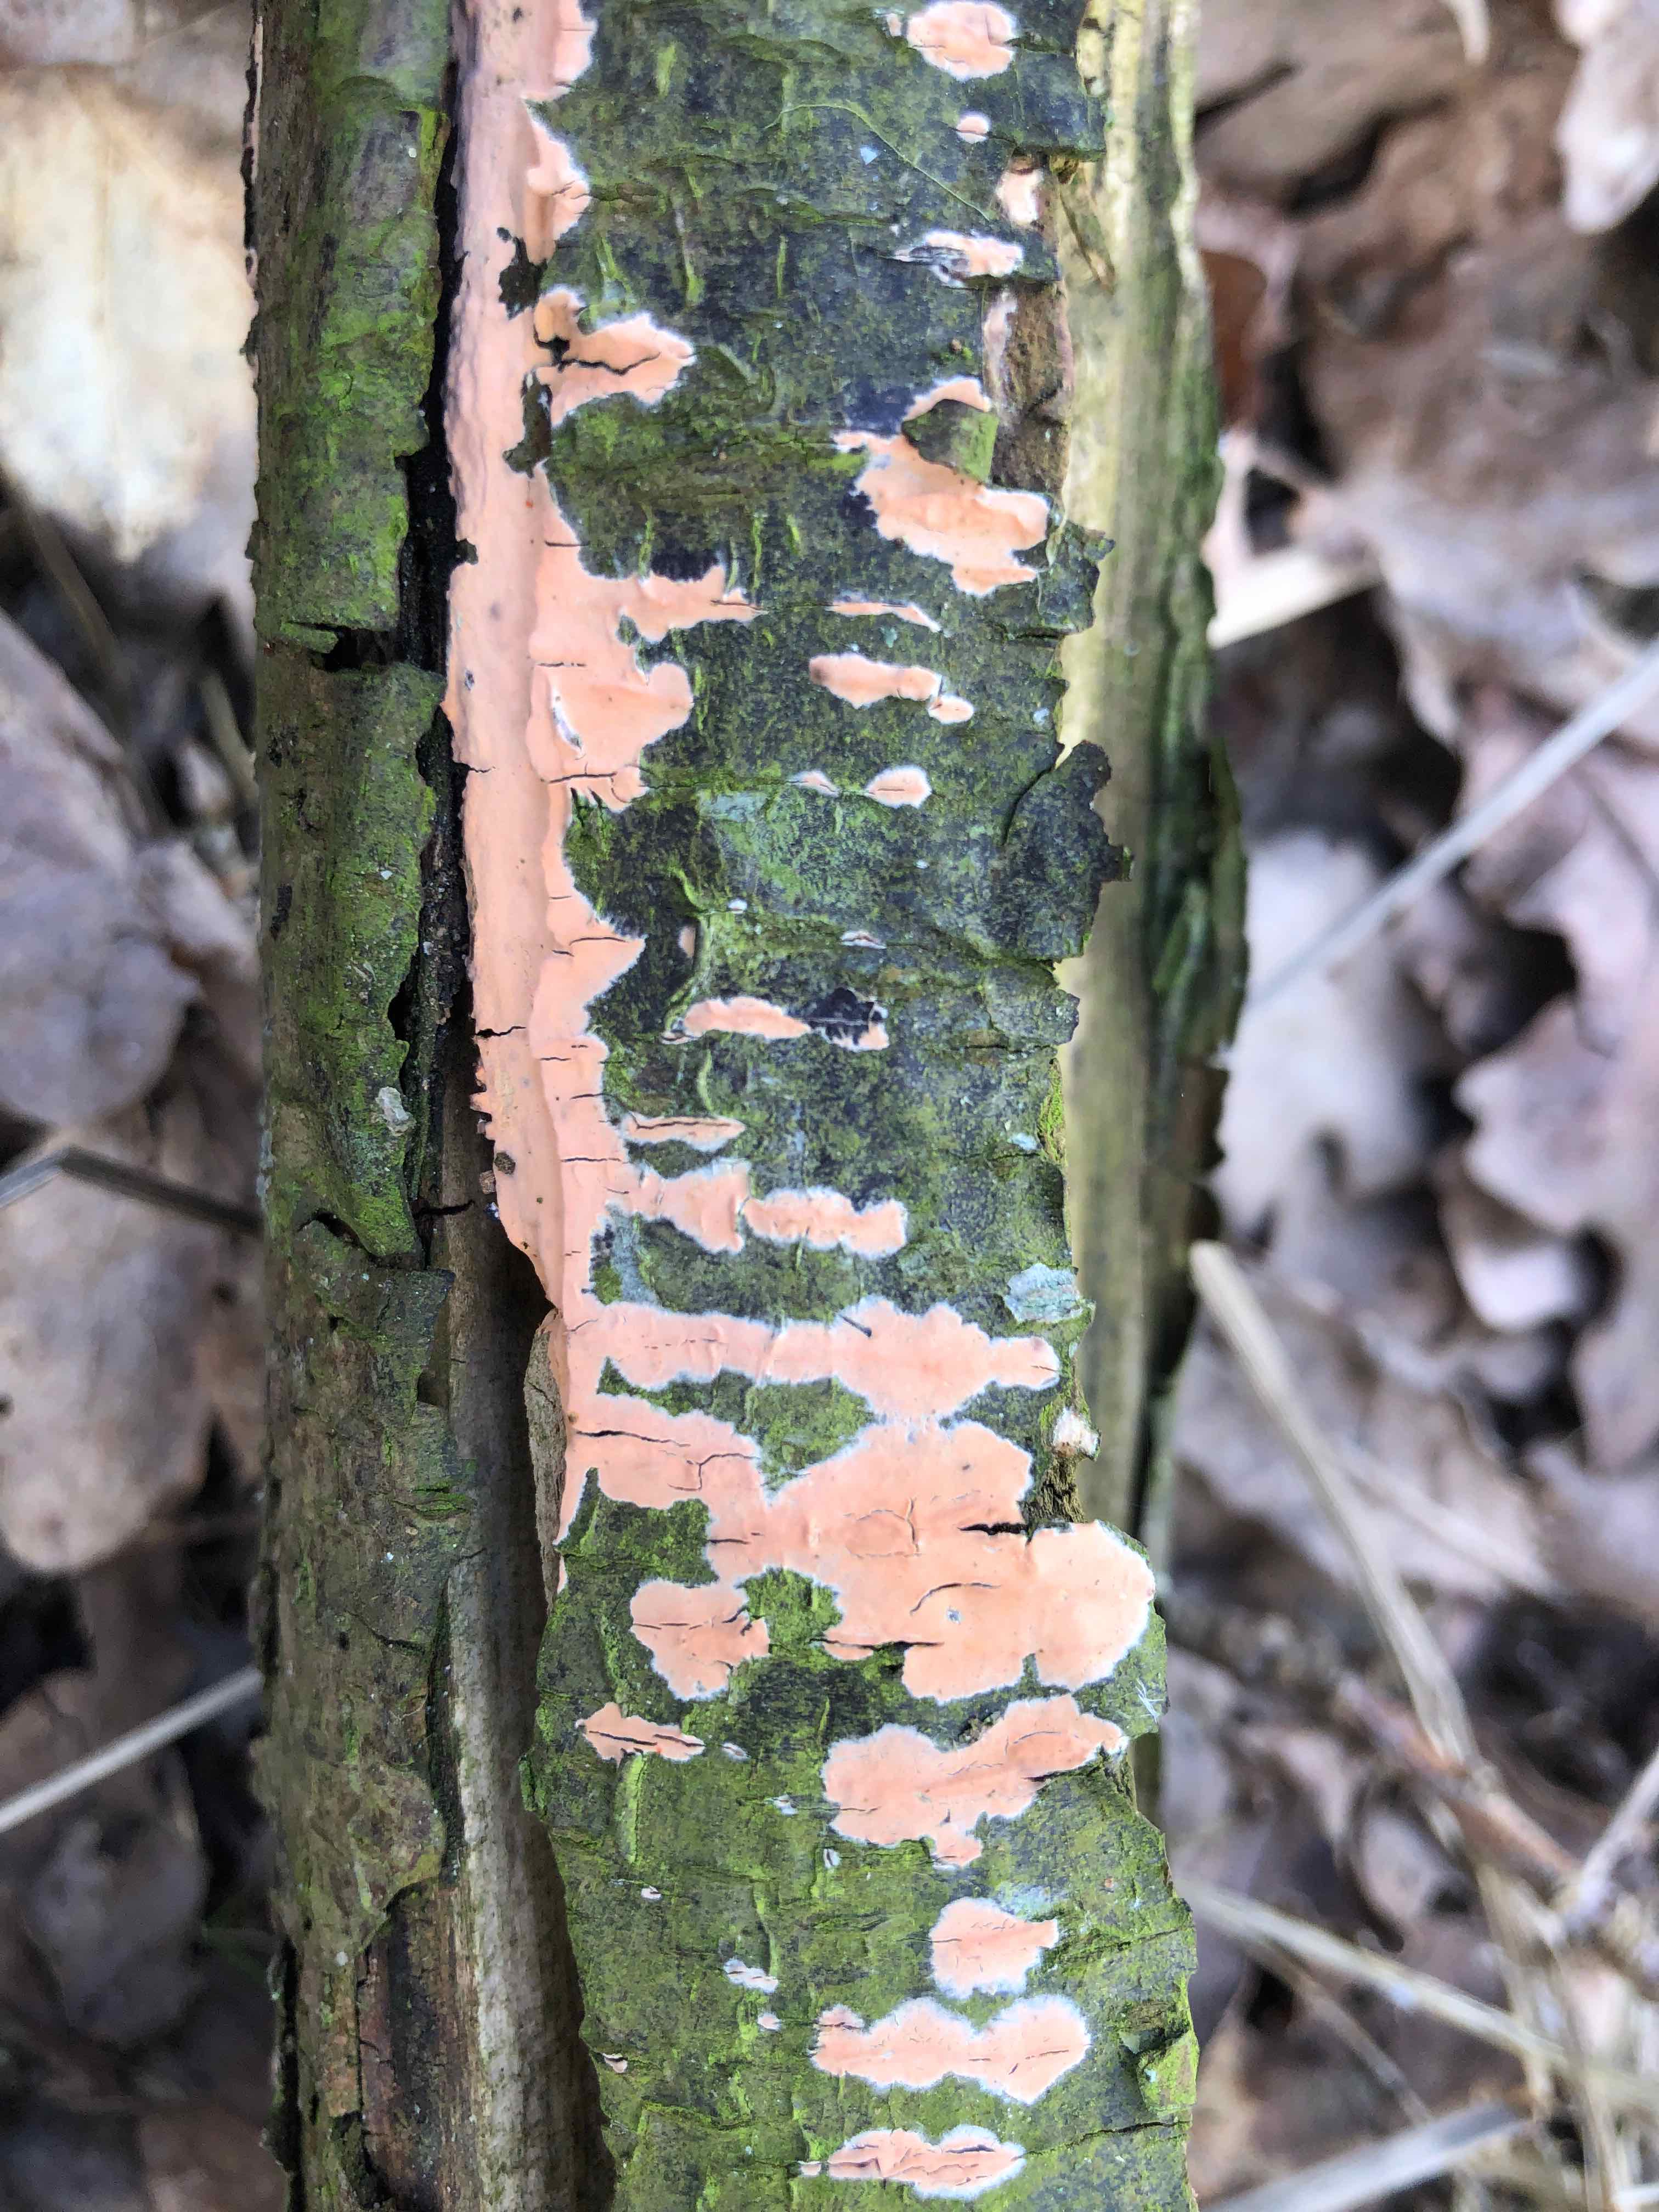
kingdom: Fungi
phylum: Basidiomycota
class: Agaricomycetes
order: Russulales
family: Peniophoraceae
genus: Peniophora
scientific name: Peniophora incarnata
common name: laksefarvet voksskind
